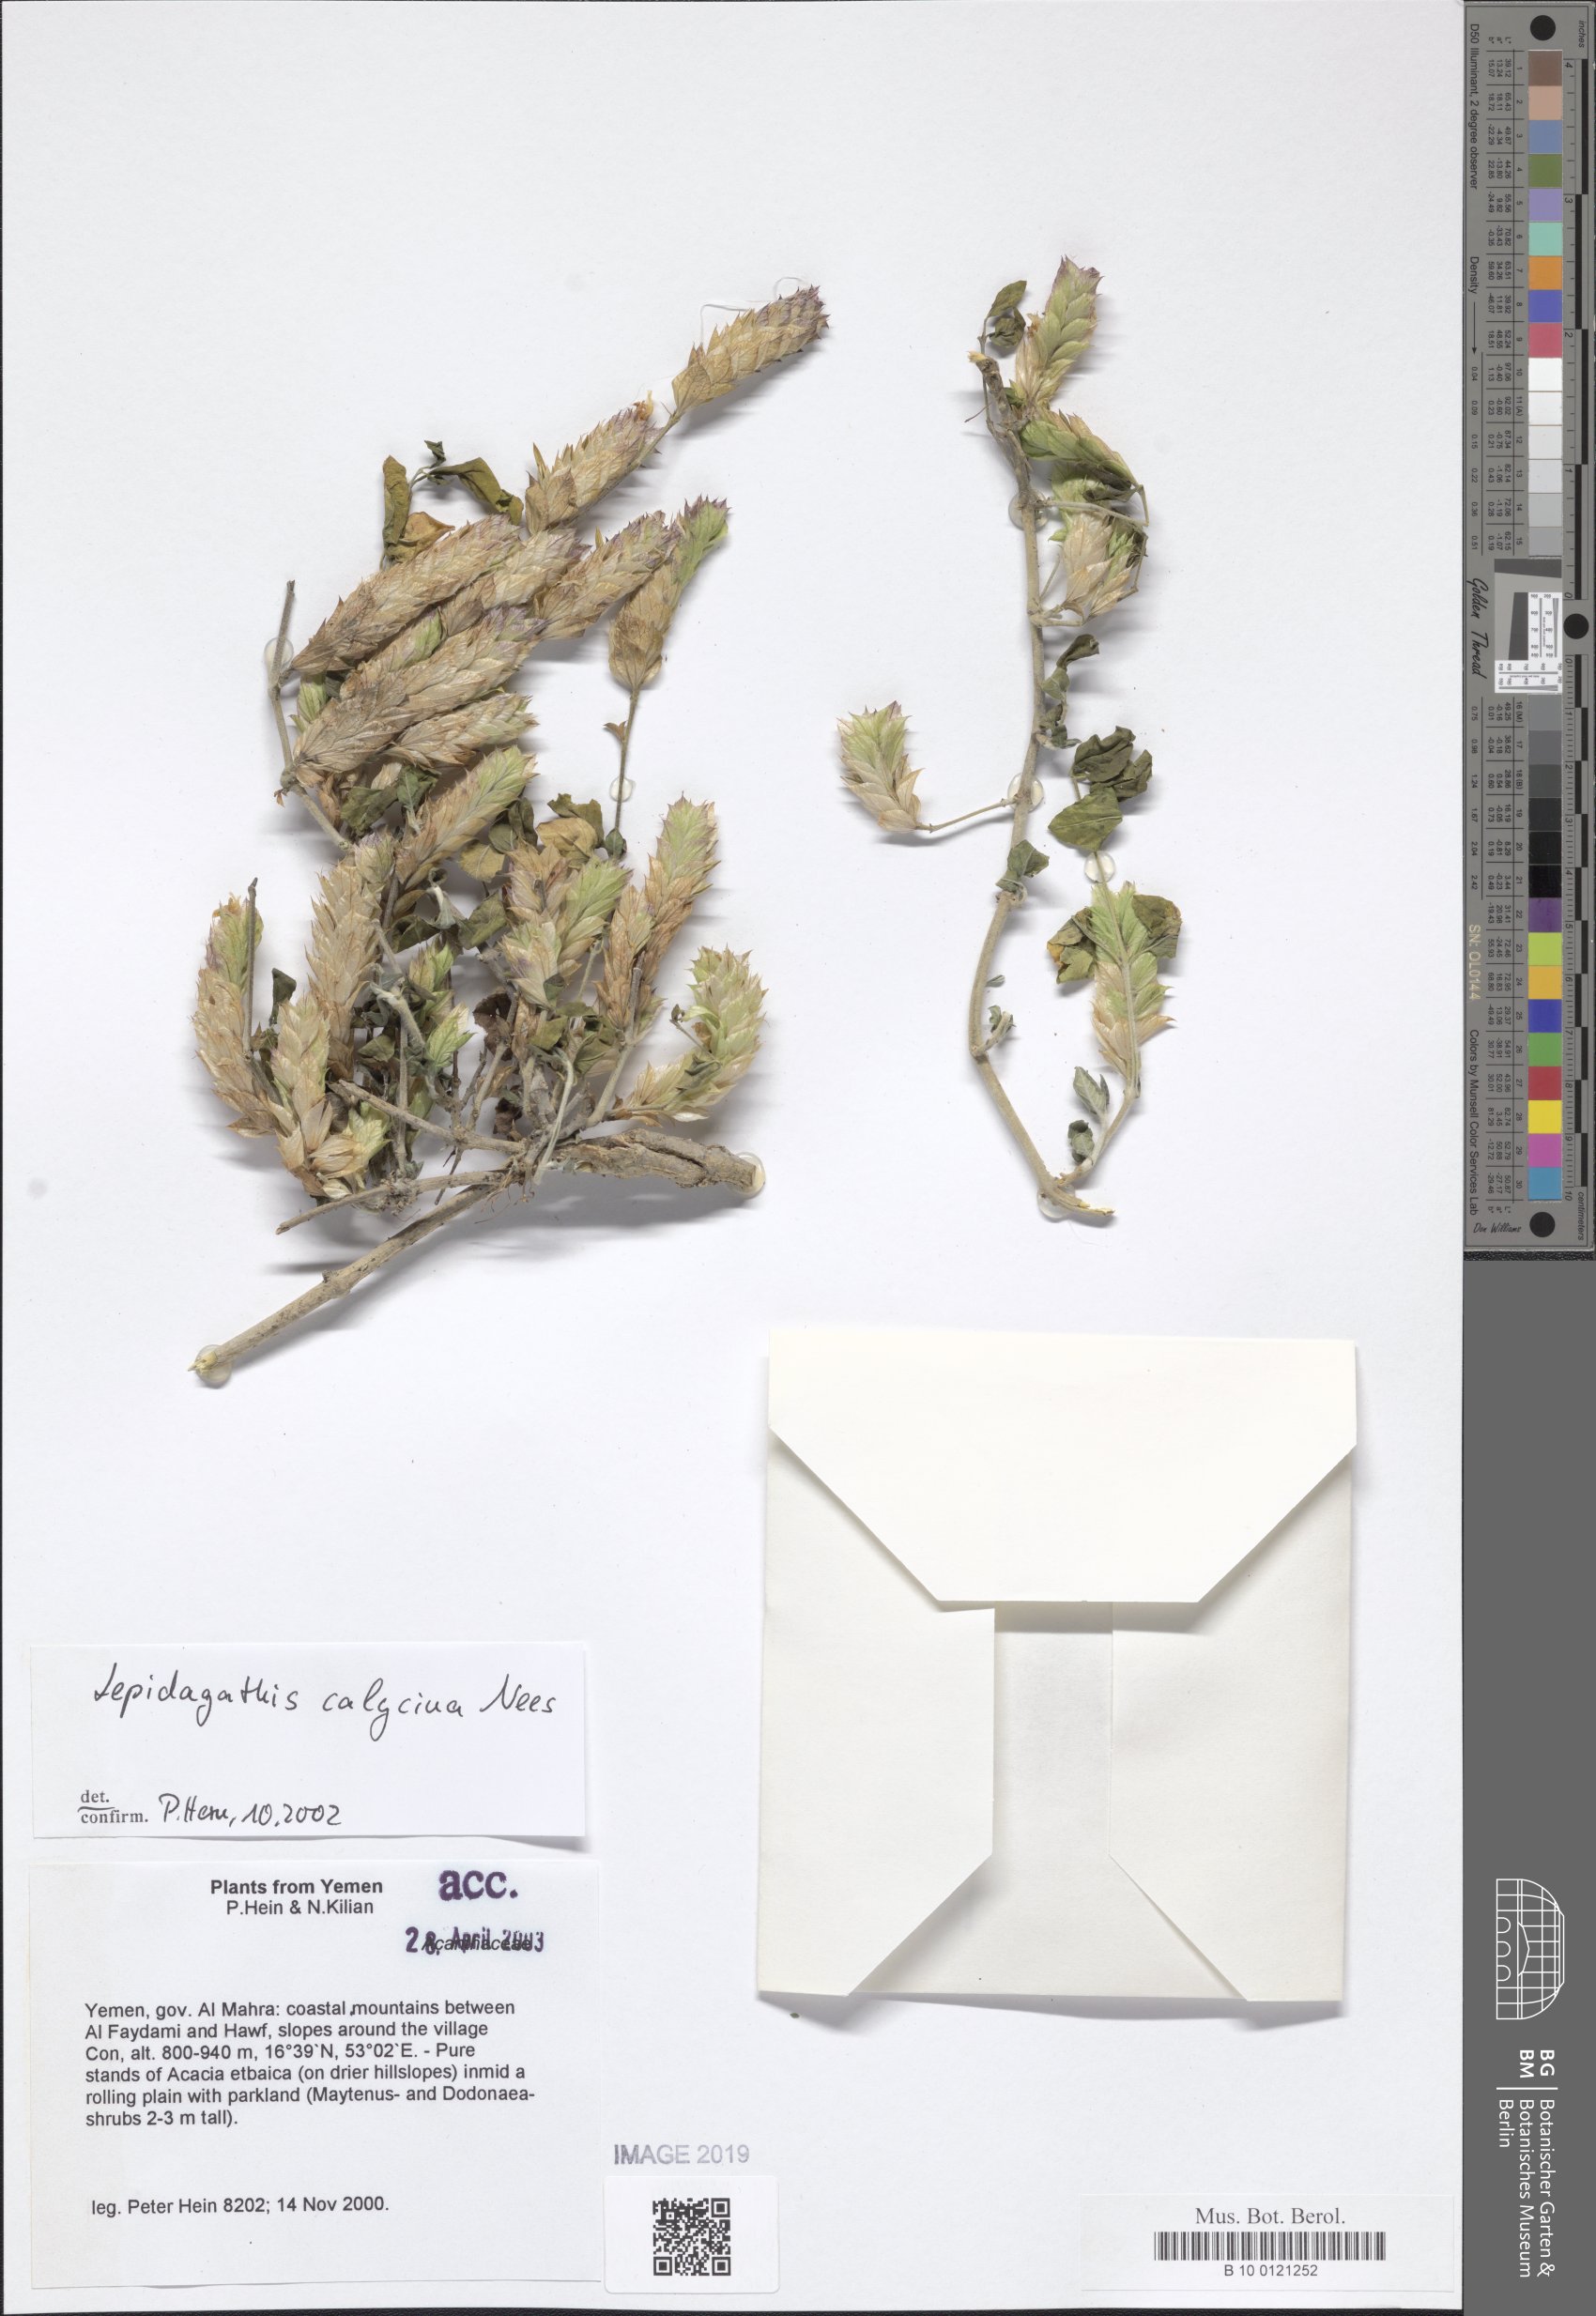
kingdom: Plantae
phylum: Tracheophyta
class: Magnoliopsida
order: Lamiales
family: Acanthaceae
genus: Lepidagathis
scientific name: Lepidagathis calycina
